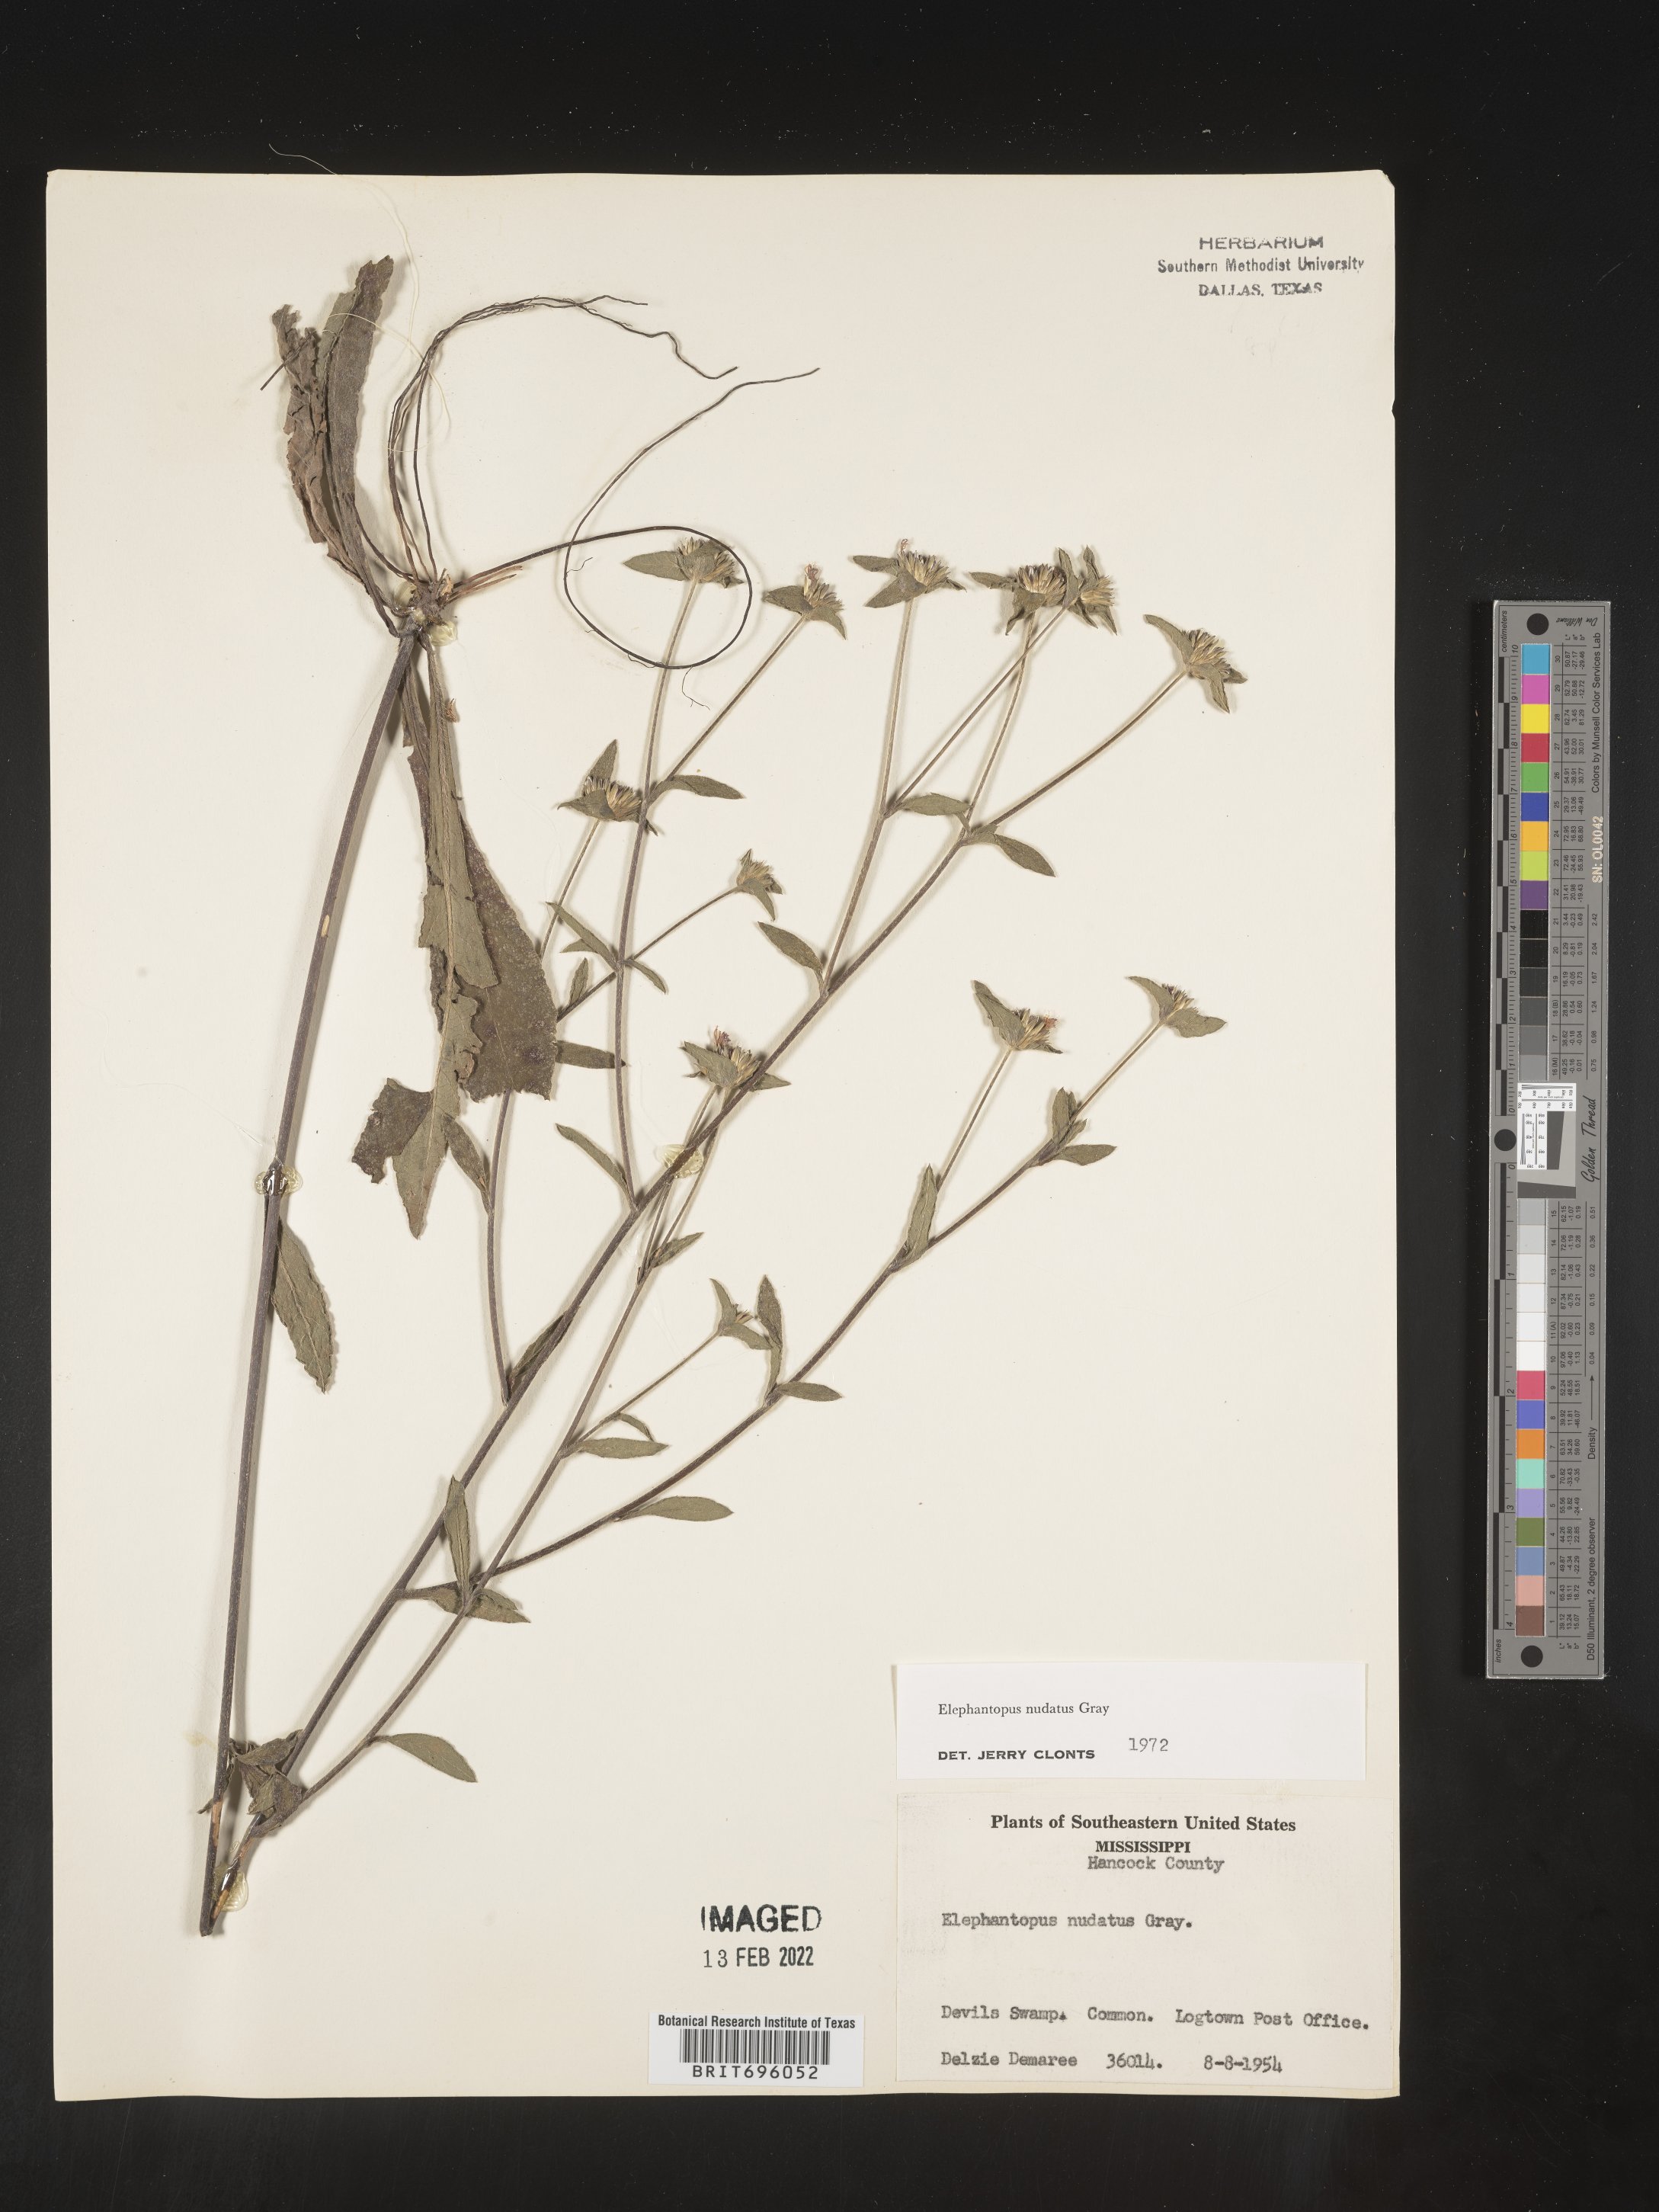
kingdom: Plantae
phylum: Tracheophyta
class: Magnoliopsida
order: Asterales
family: Asteraceae
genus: Elephantopus
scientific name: Elephantopus nudatus
